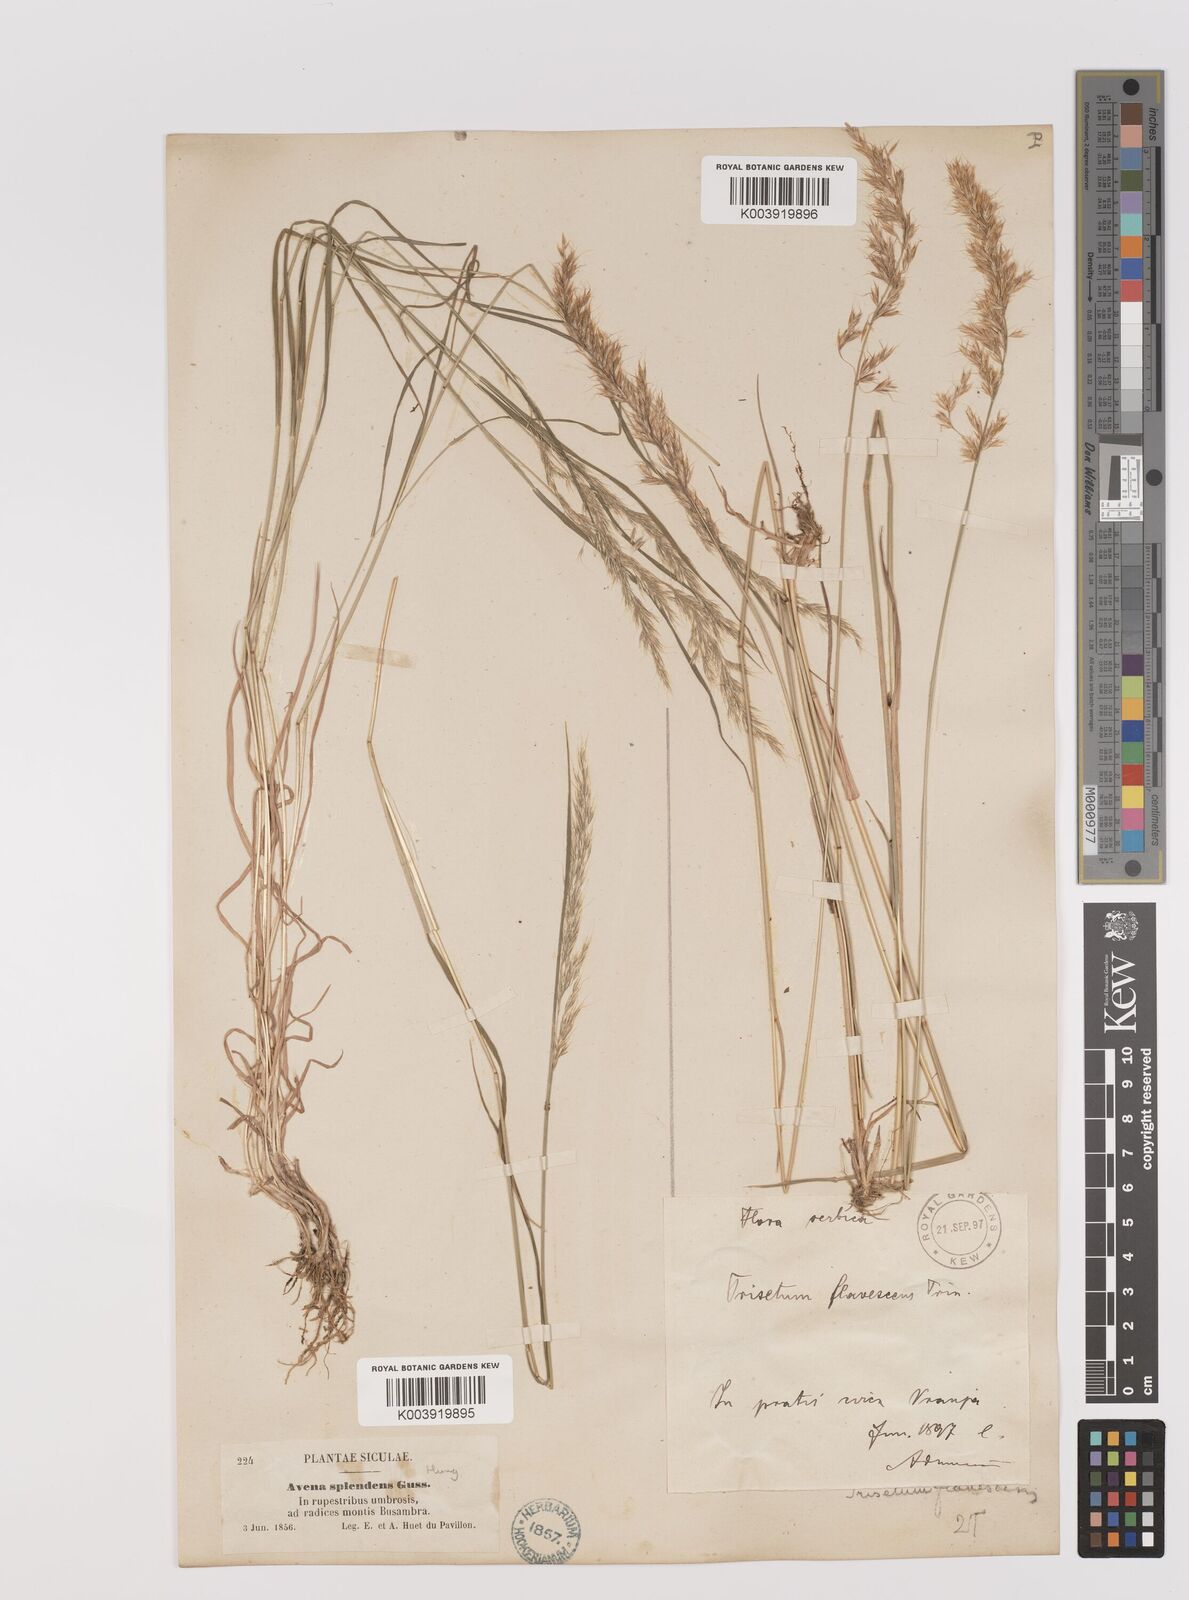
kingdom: Plantae
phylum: Tracheophyta
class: Liliopsida
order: Poales
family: Poaceae
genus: Trisetum
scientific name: Trisetum flavescens
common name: Yellow oat-grass
